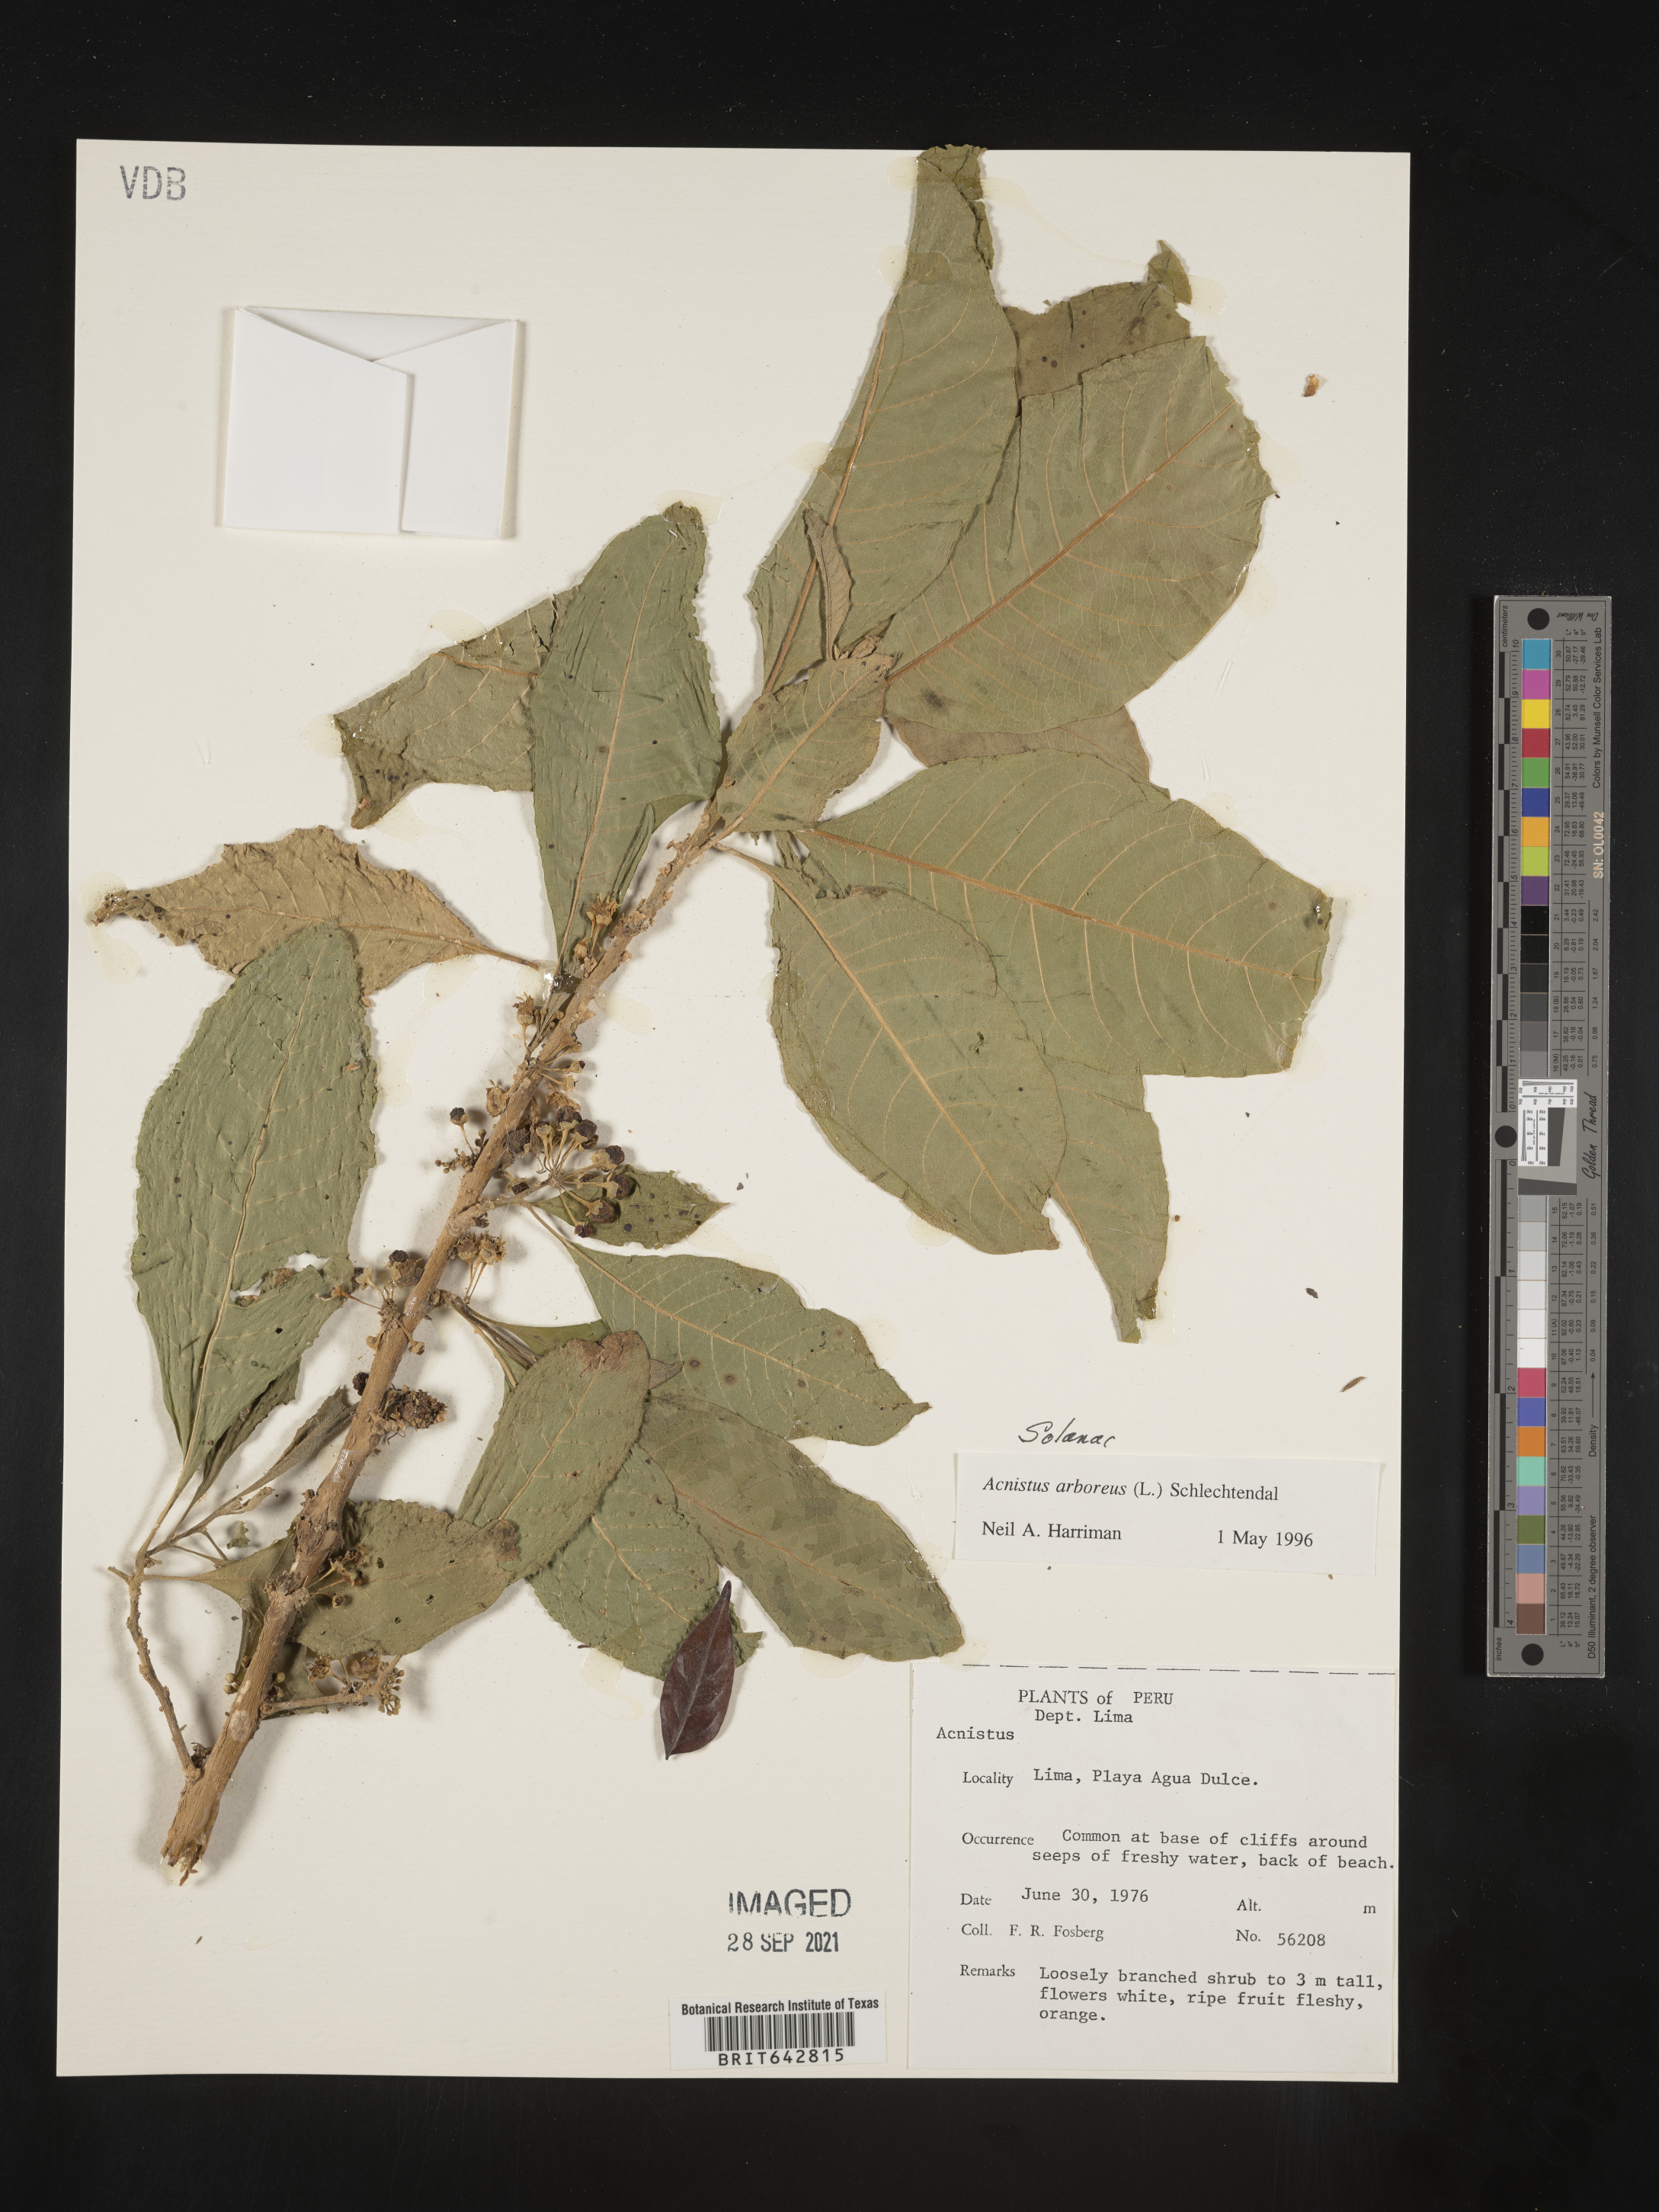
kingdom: Plantae
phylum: Tracheophyta
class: Magnoliopsida
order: Solanales
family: Solanaceae
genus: Iochroma
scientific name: Iochroma Acnistus spec
